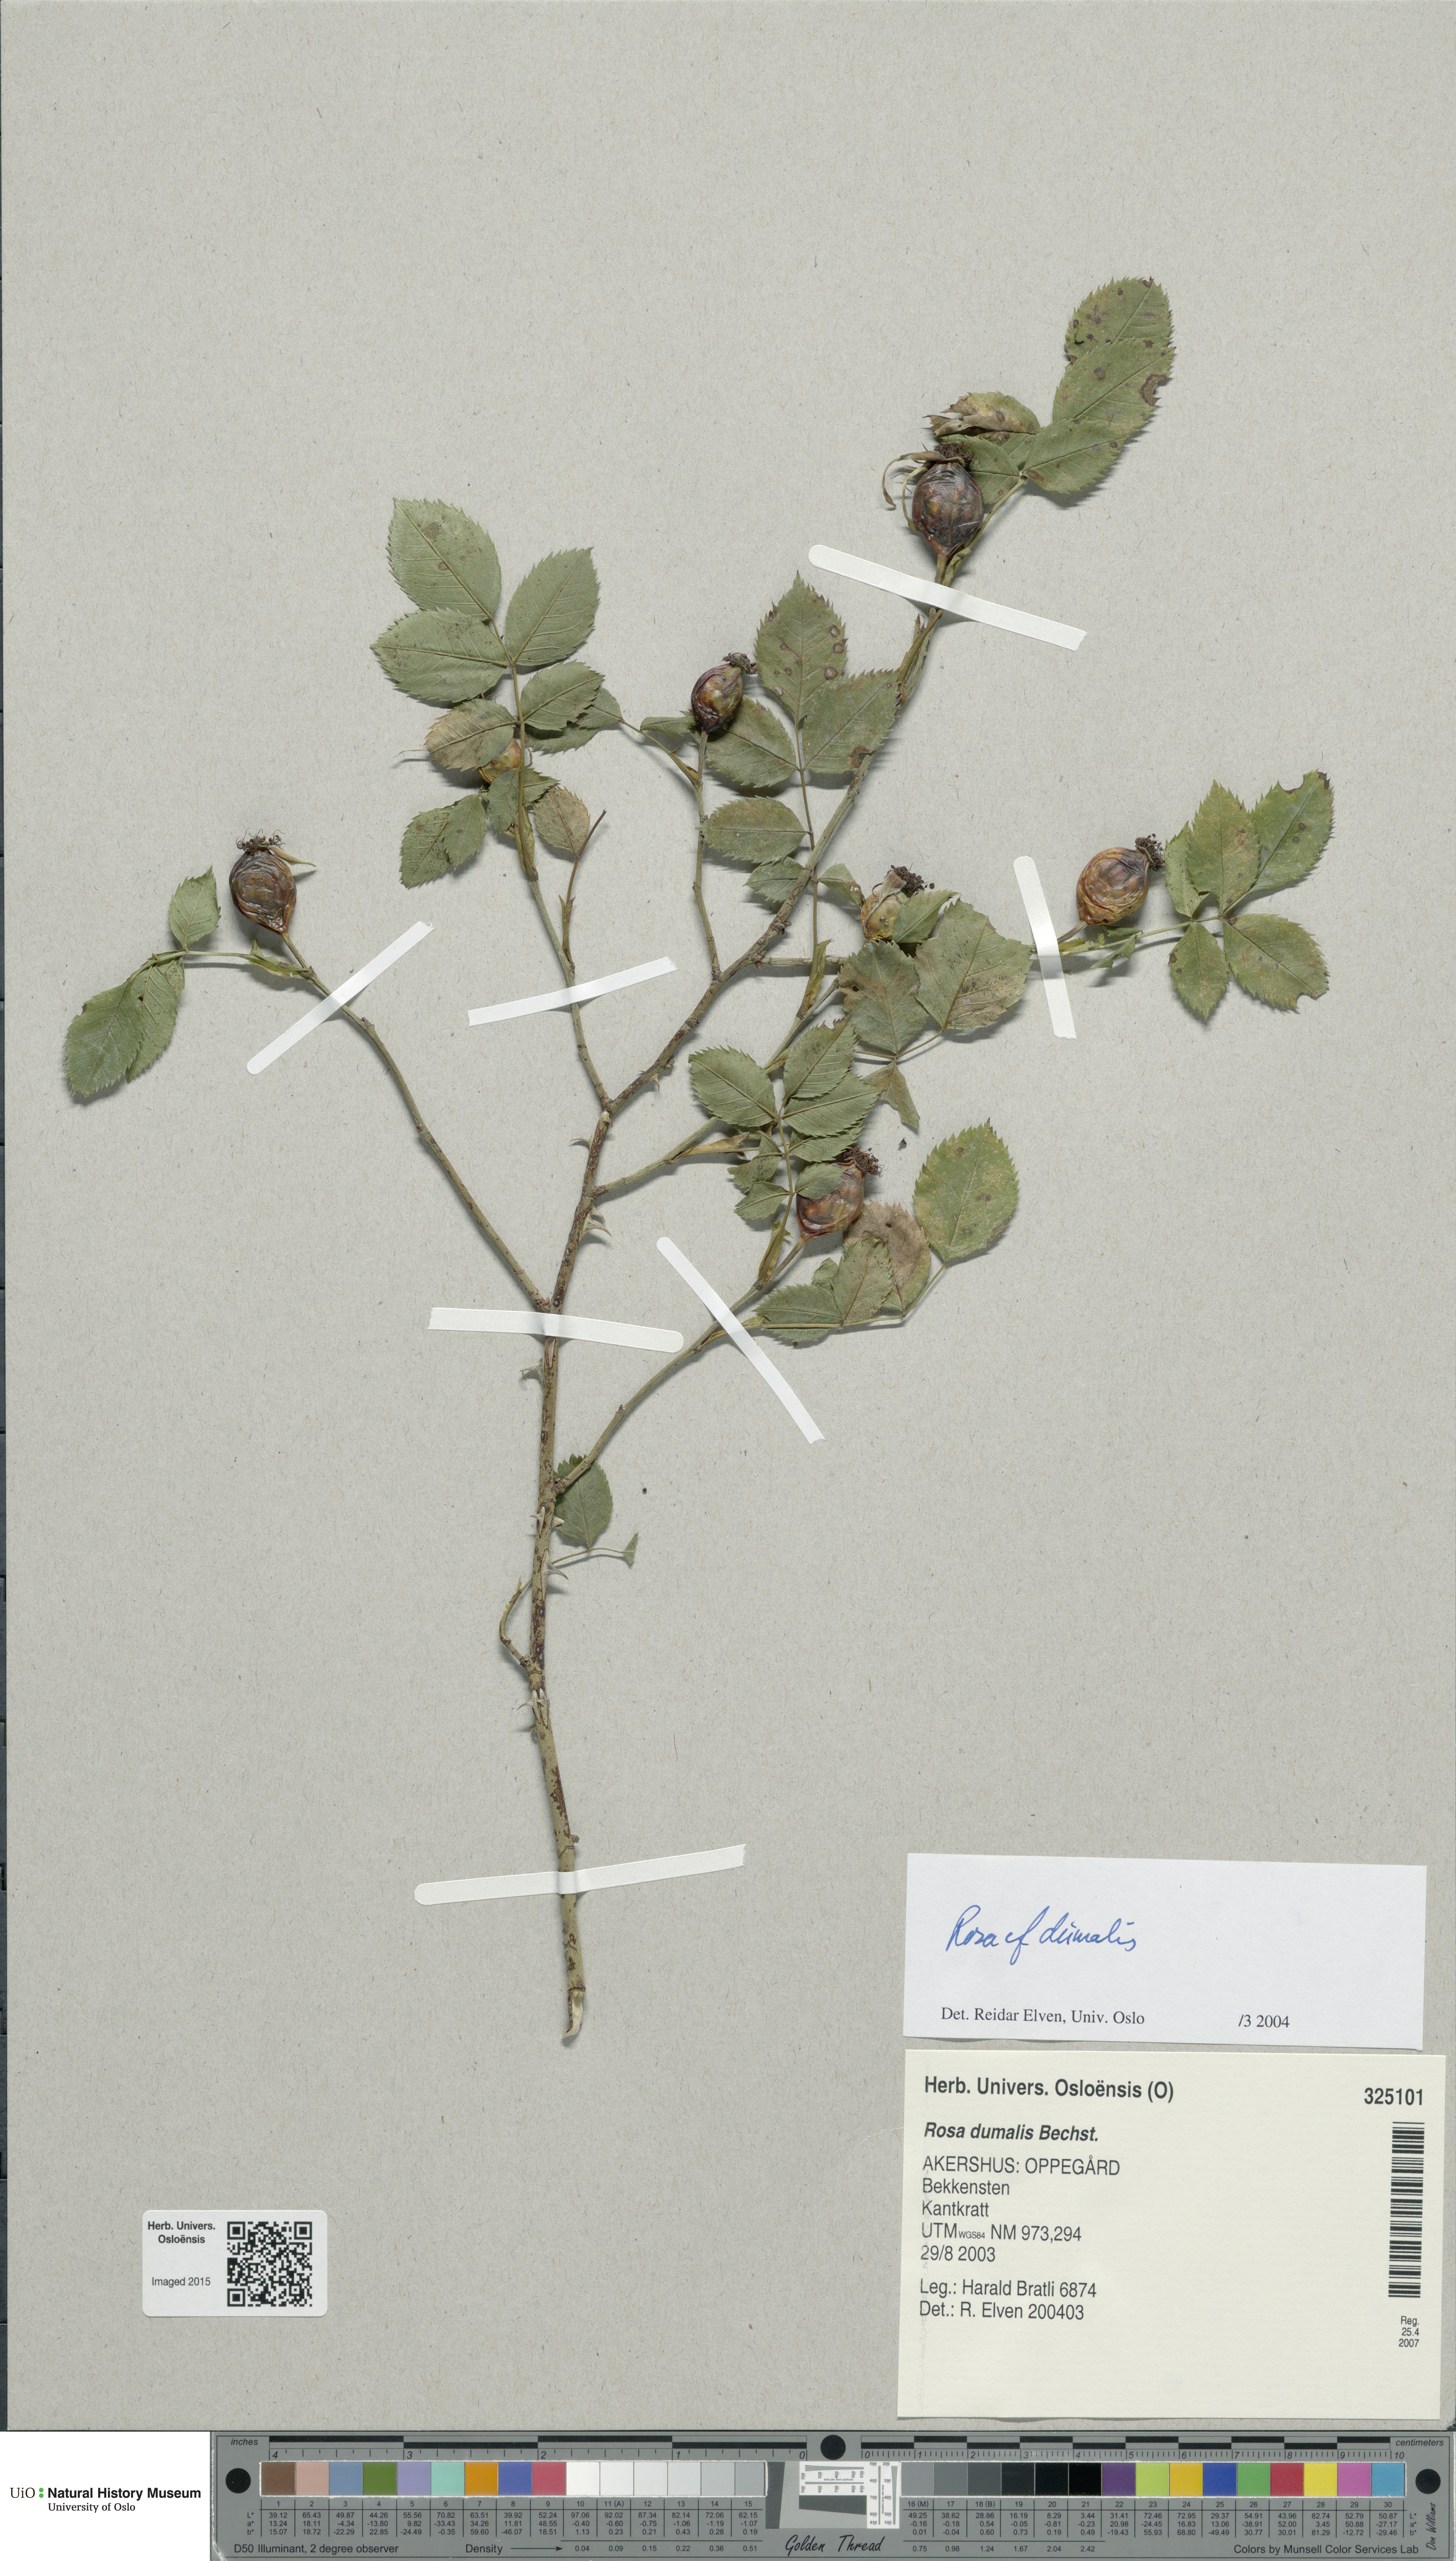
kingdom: Plantae
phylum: Tracheophyta
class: Magnoliopsida
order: Rosales
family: Rosaceae
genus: Rosa
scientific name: Rosa dumalis
